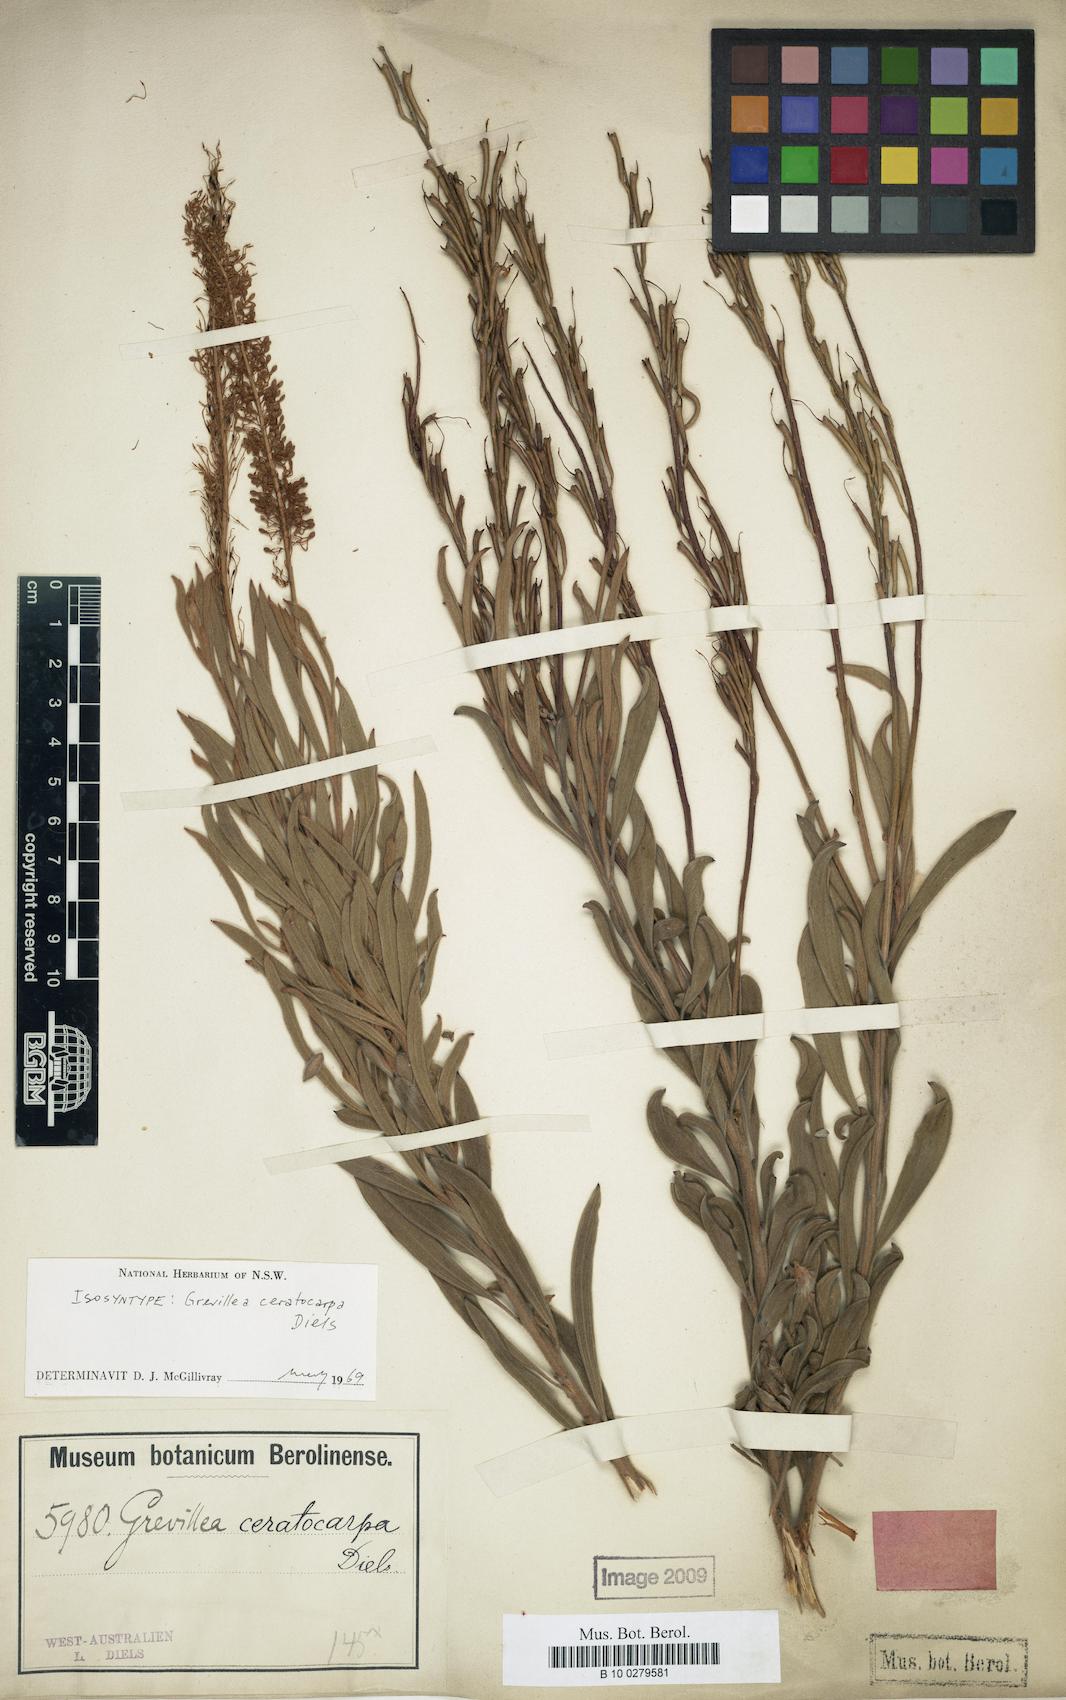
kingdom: Plantae
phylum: Tracheophyta
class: Magnoliopsida
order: Proteales
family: Proteaceae
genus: Grevillea
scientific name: Grevillea ceratocarpa
